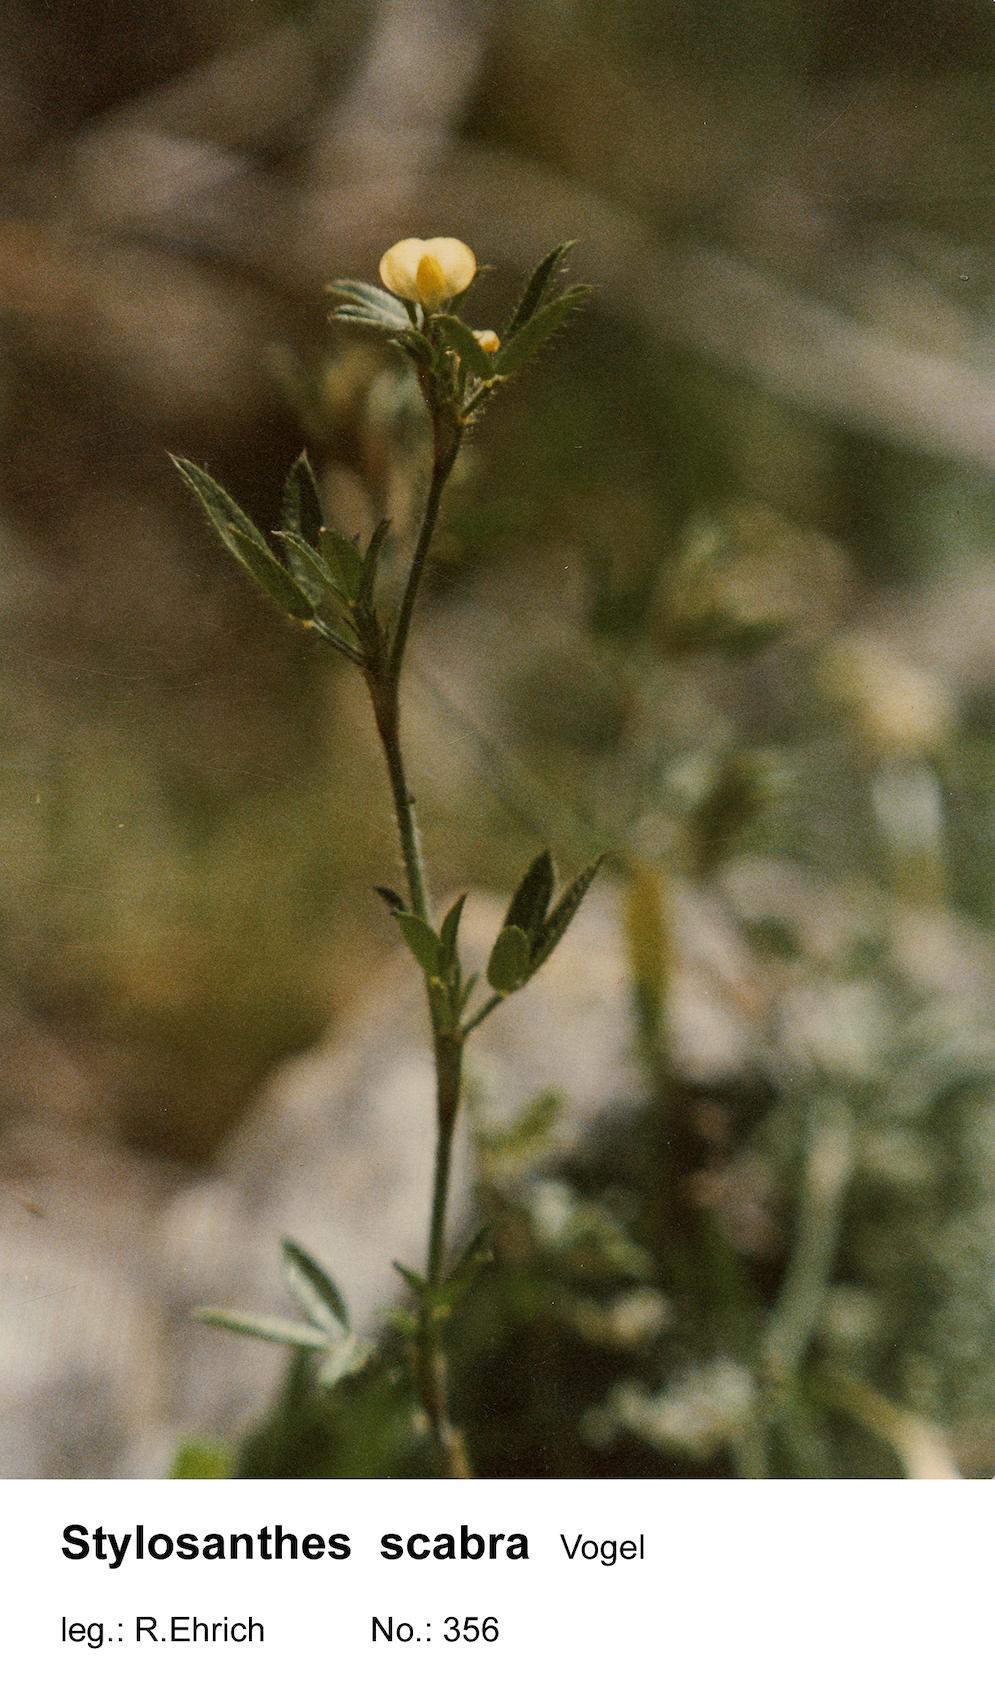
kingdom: Plantae
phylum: Tracheophyta
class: Magnoliopsida
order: Fabales
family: Fabaceae
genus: Stylosanthes
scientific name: Stylosanthes scabra
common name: Pencilflower
